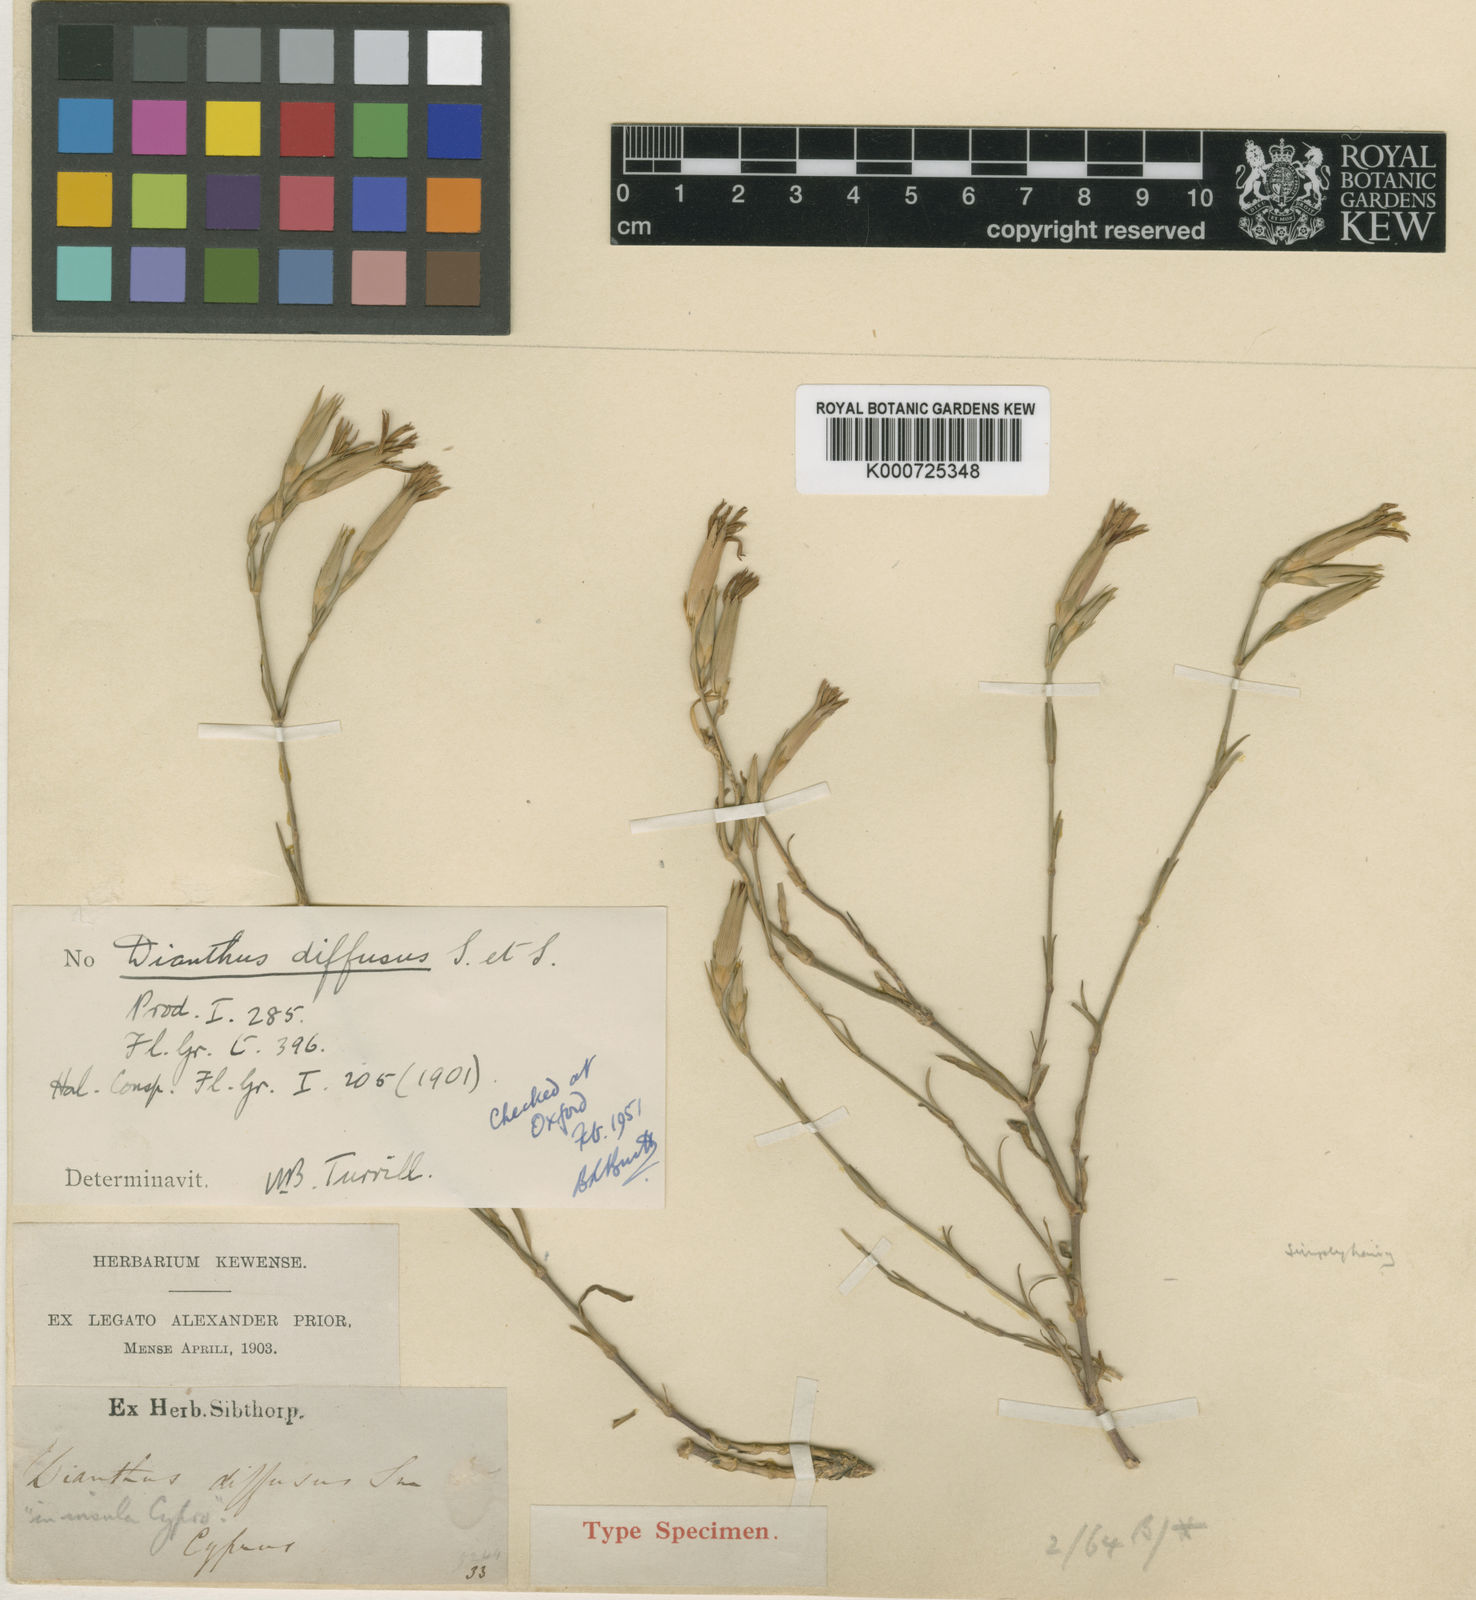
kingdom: Plantae
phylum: Tracheophyta
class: Magnoliopsida
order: Caryophyllales
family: Caryophyllaceae
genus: Dianthus
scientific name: Dianthus diffusus
